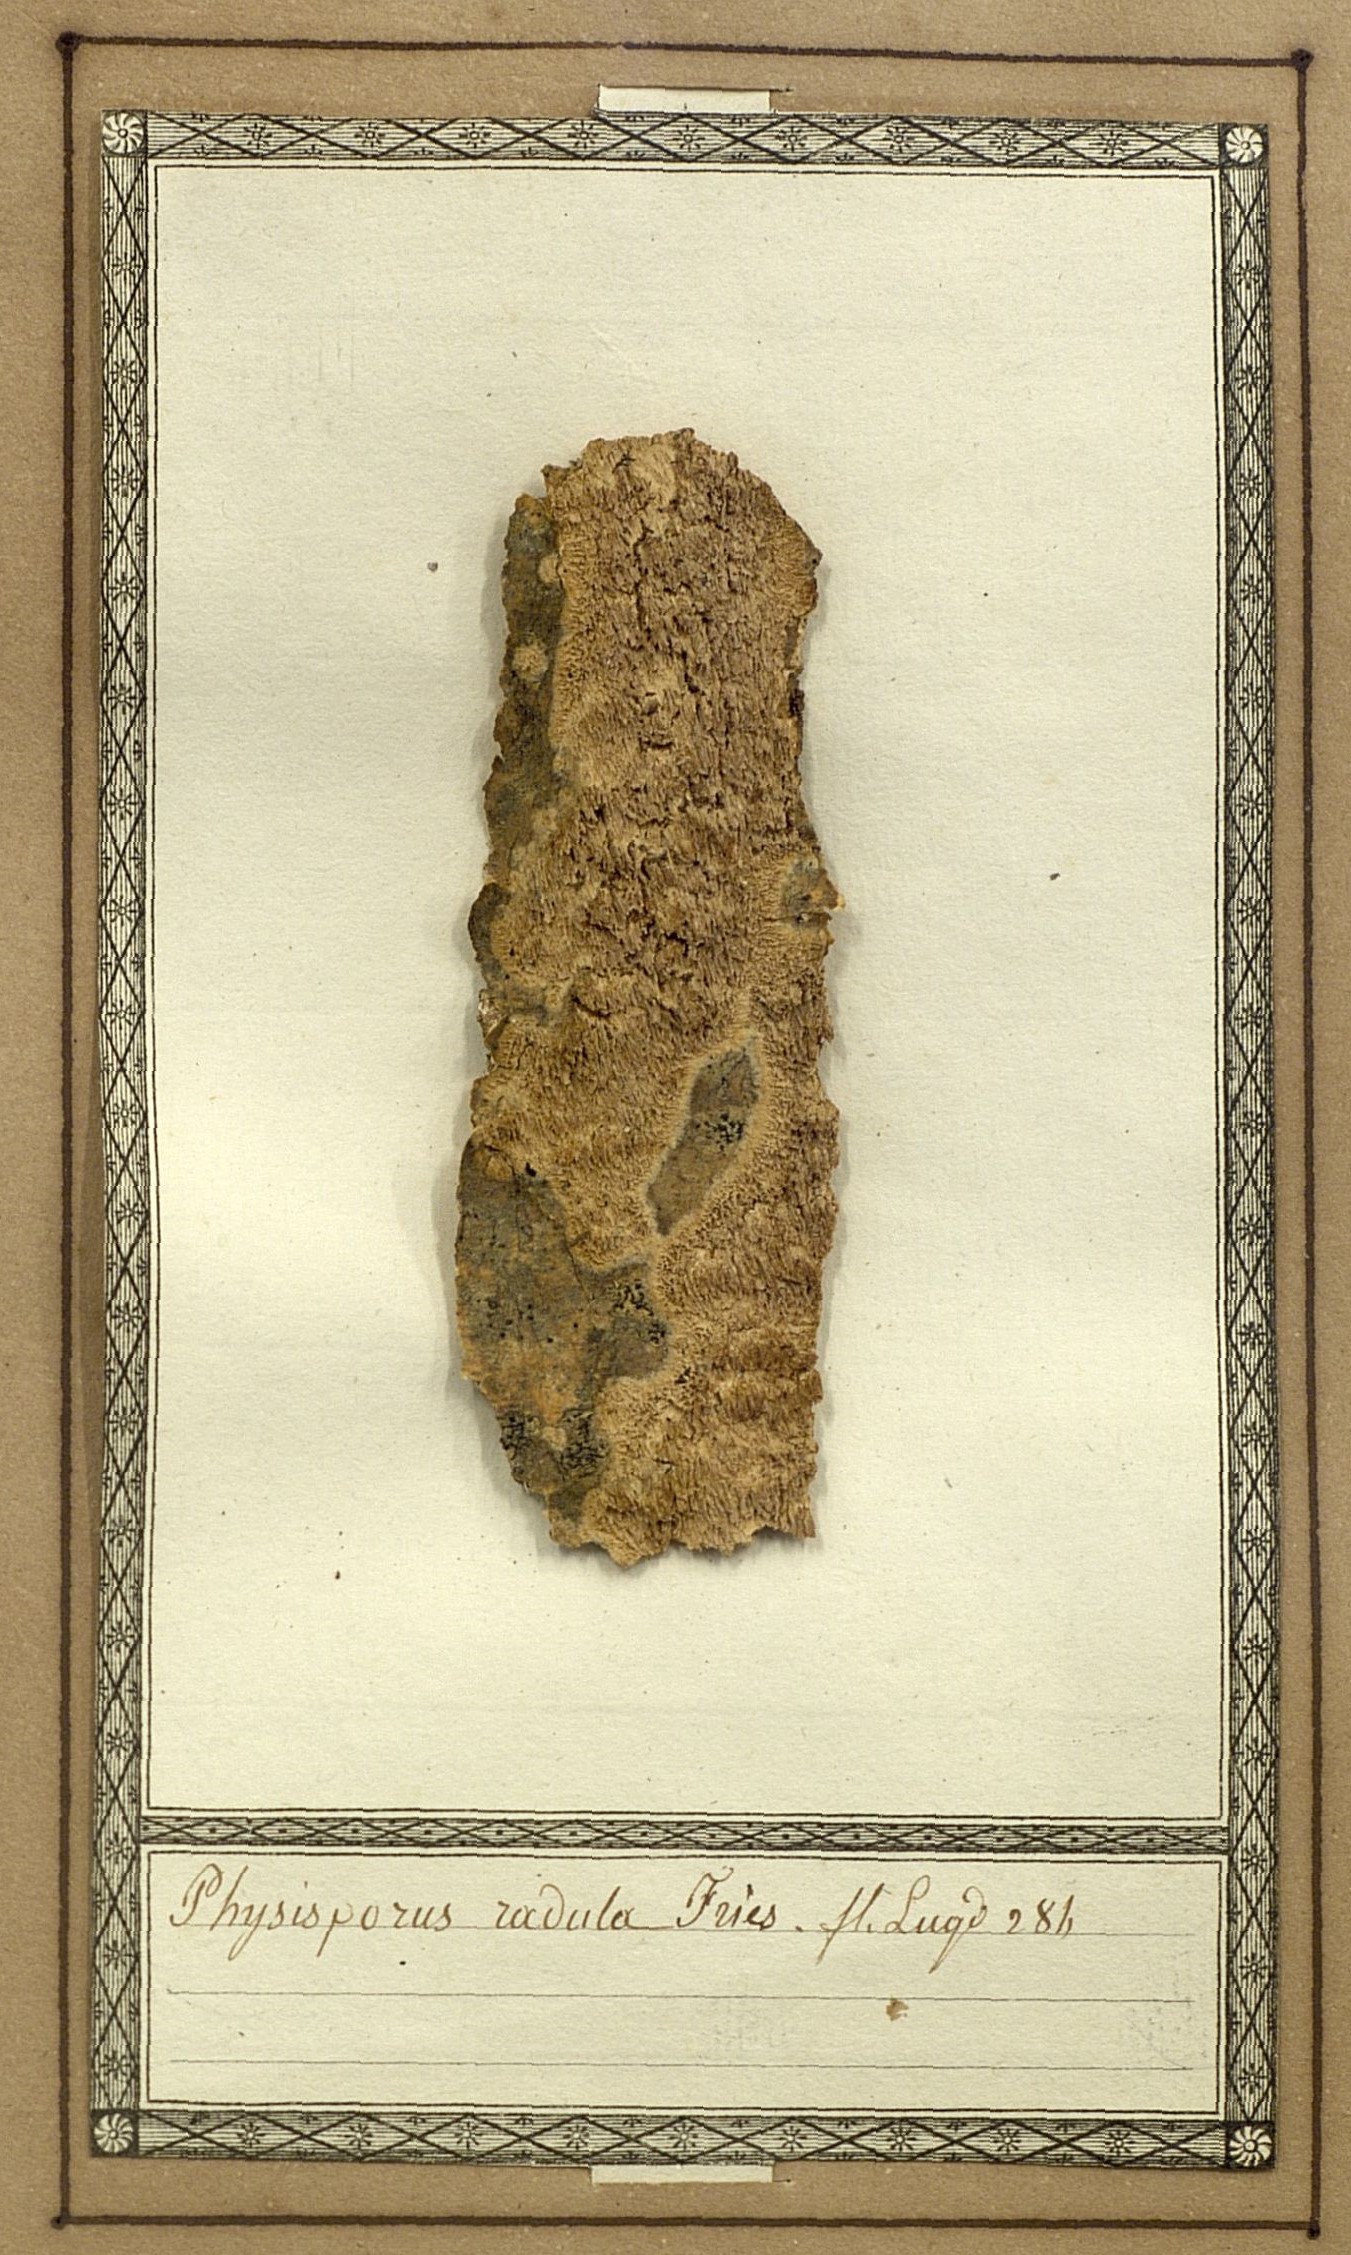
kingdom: Fungi
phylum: Basidiomycota
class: Agaricomycetes
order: Hymenochaetales
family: Schizoporaceae
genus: Xylodon
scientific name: Xylodon raduloides
